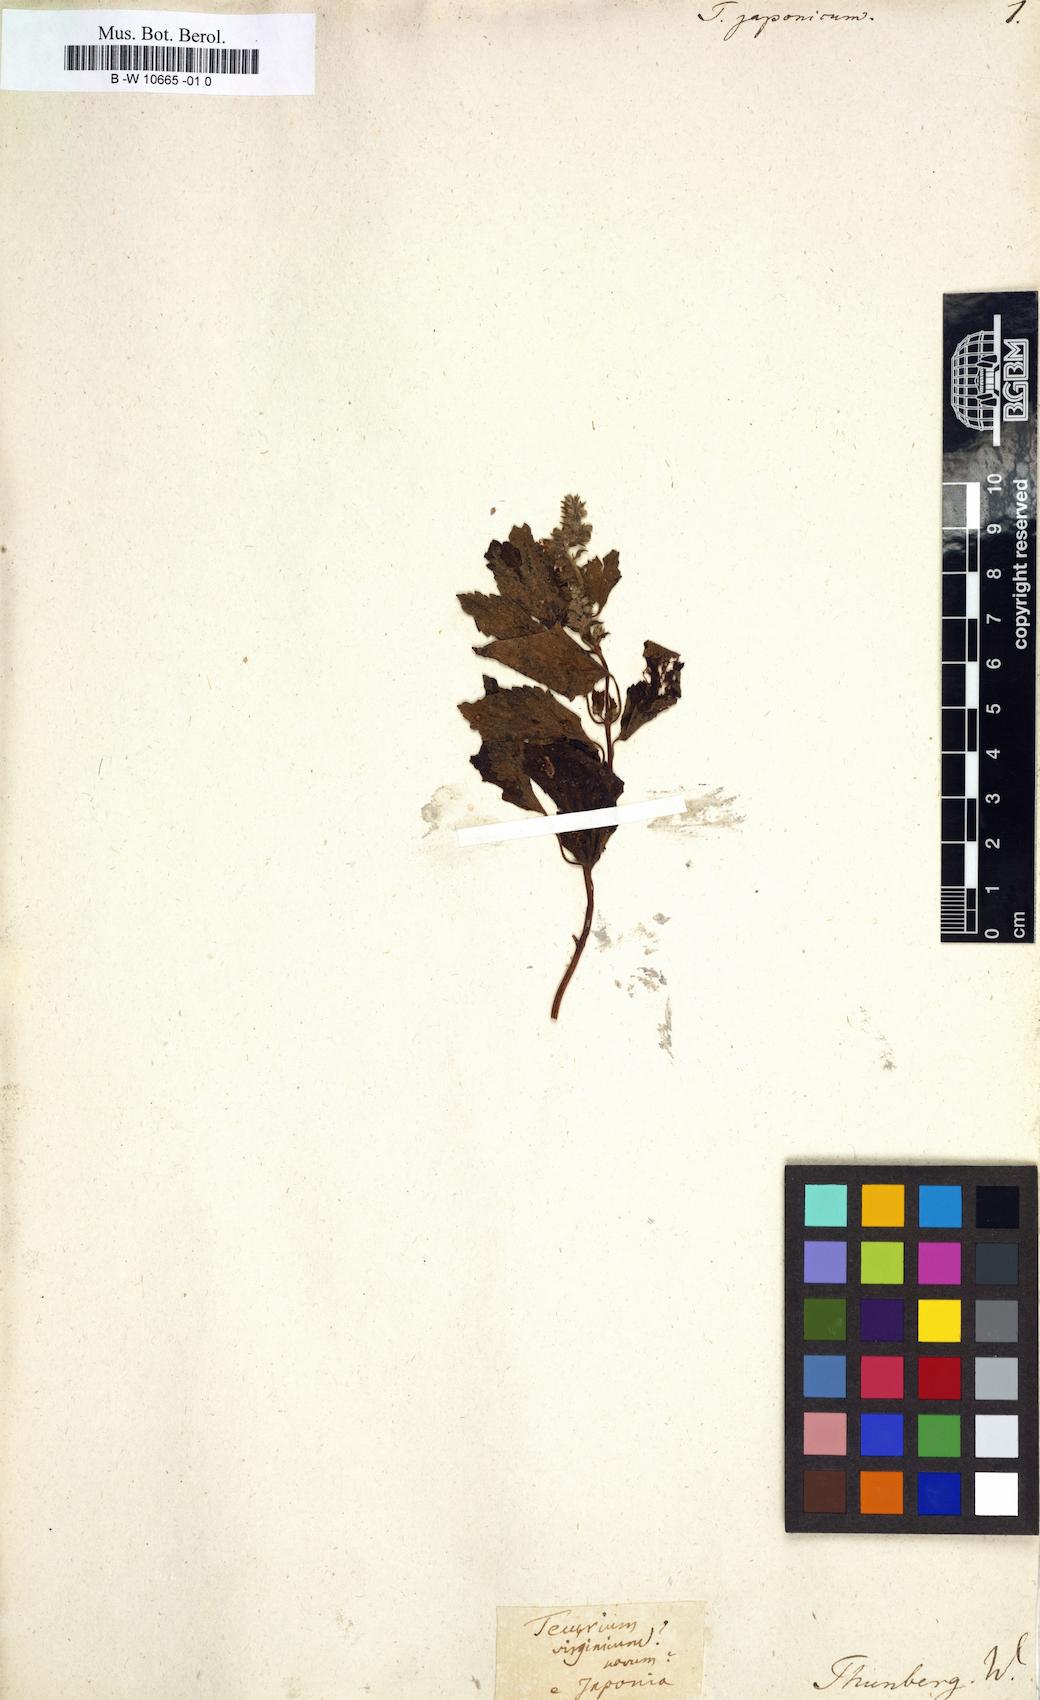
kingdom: Plantae
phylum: Tracheophyta
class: Magnoliopsida
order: Lamiales
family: Lamiaceae
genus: Teucrium
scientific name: Teucrium japonicum
